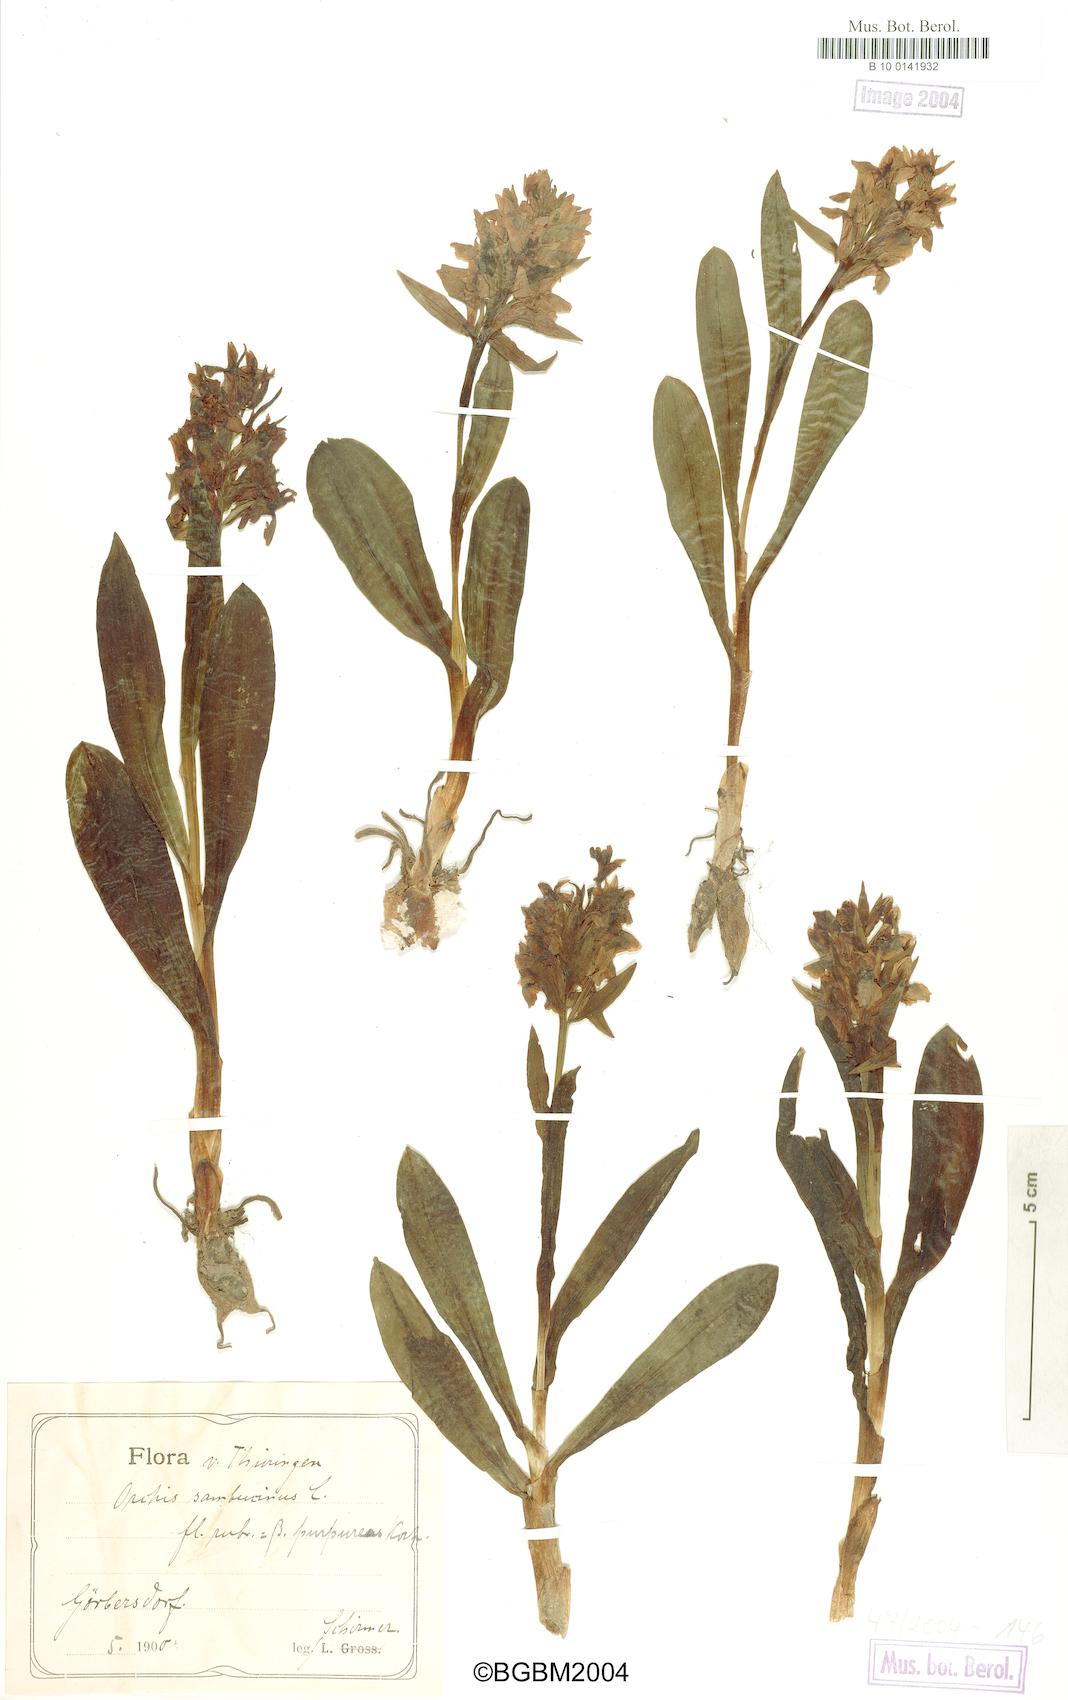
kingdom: Plantae
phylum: Tracheophyta
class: Liliopsida
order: Asparagales
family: Orchidaceae
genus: Dactylorhiza
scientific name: Dactylorhiza sambucina
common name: Elder-flowered orchid
